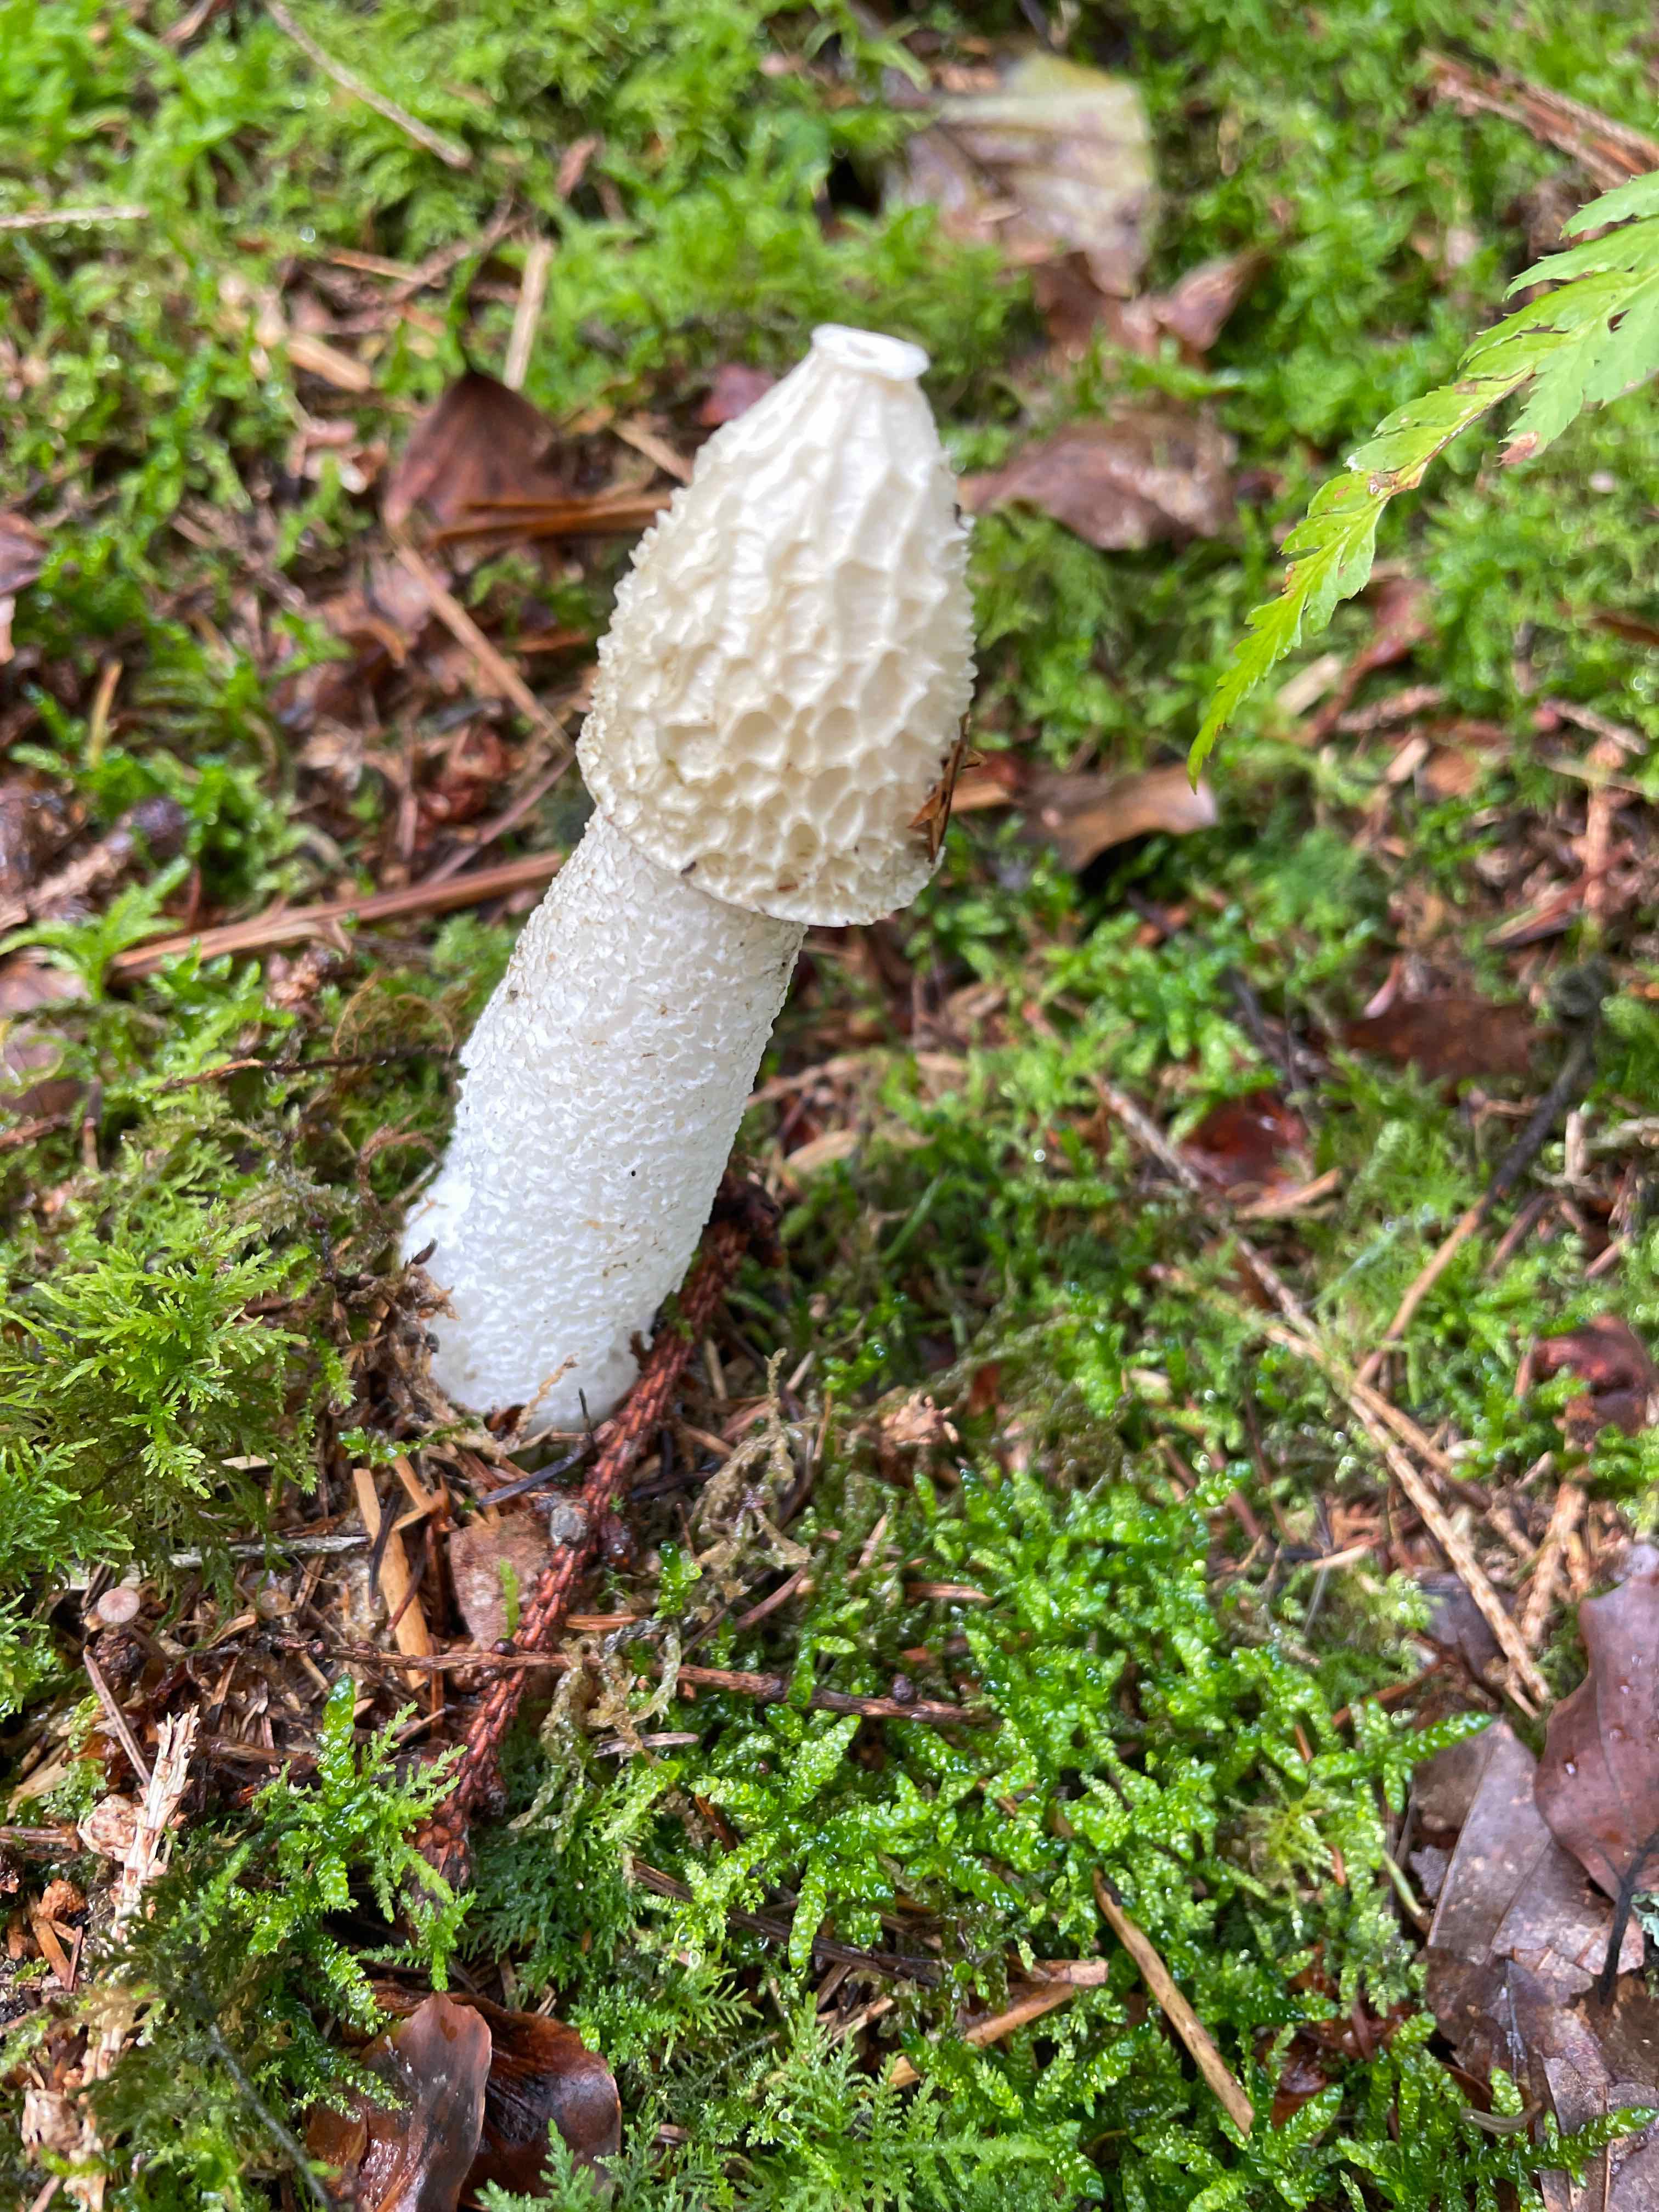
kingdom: Fungi
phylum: Basidiomycota
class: Agaricomycetes
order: Phallales
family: Phallaceae
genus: Phallus
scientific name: Phallus impudicus
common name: almindelig stinksvamp
